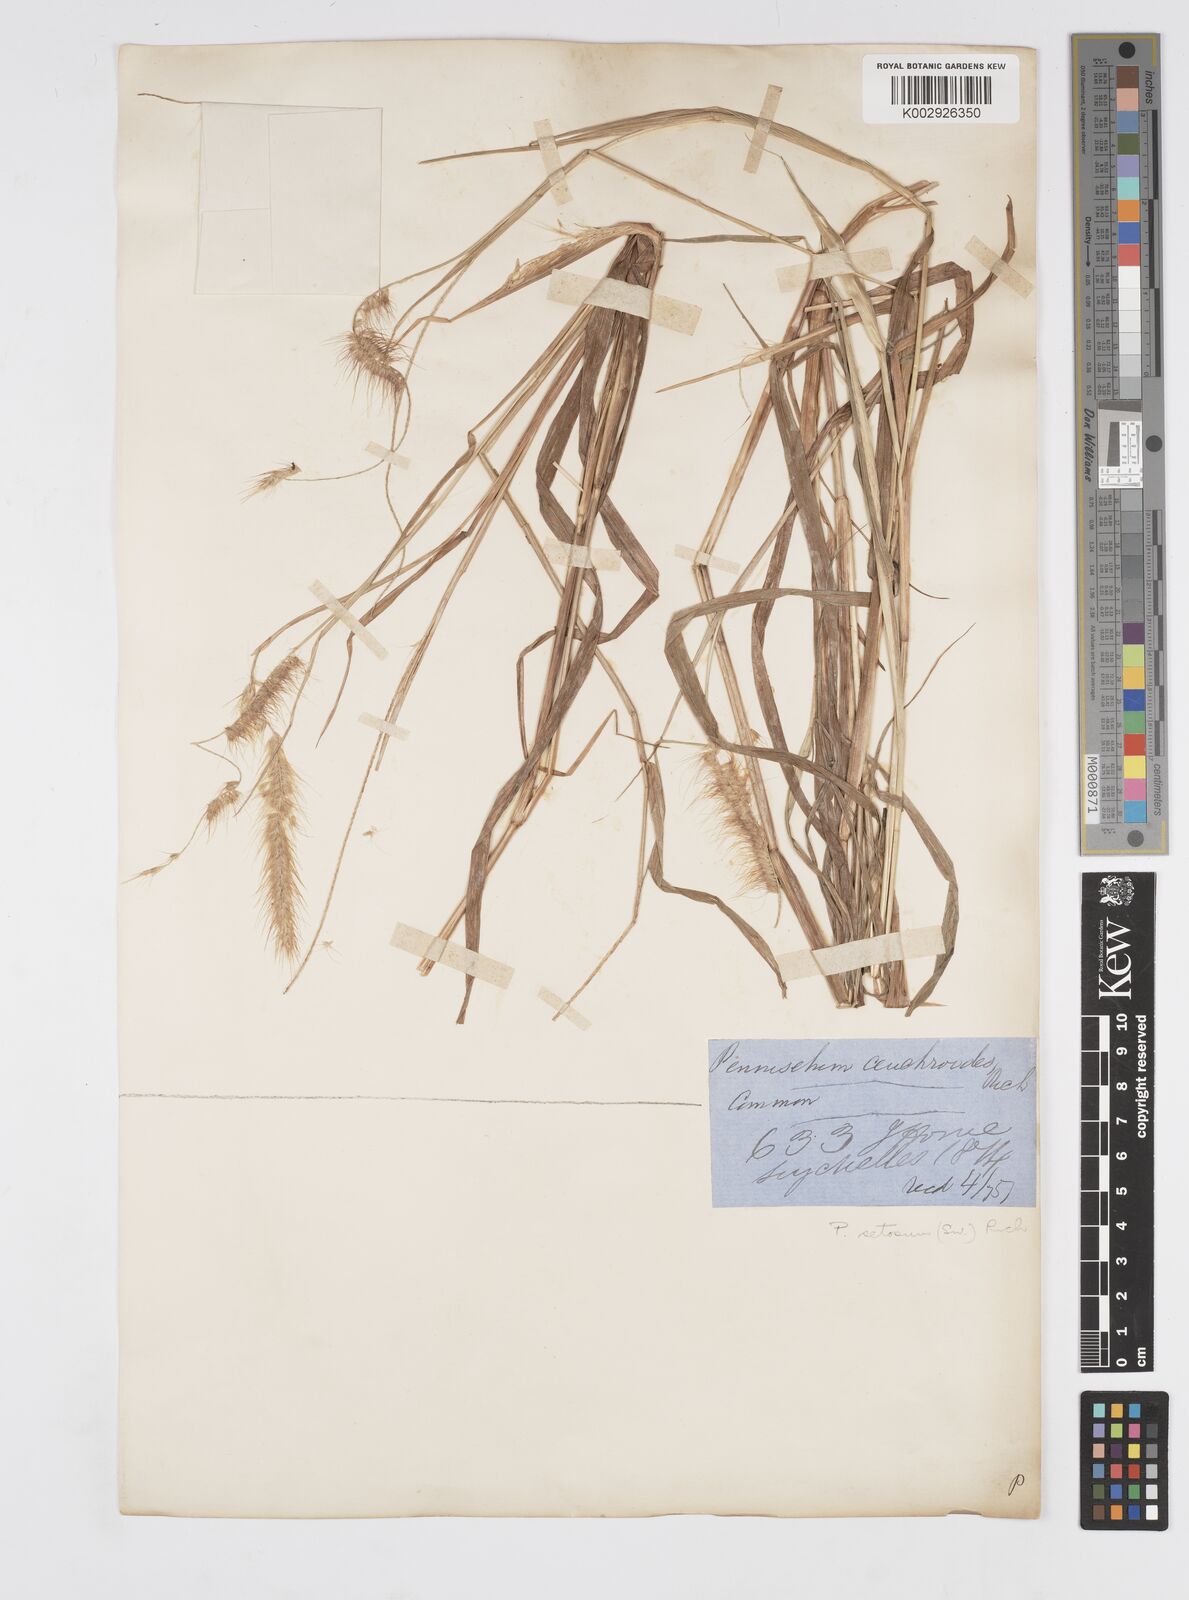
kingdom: Plantae
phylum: Tracheophyta
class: Liliopsida
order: Poales
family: Poaceae
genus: Setaria
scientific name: Setaria parviflora
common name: Knotroot bristle-grass
